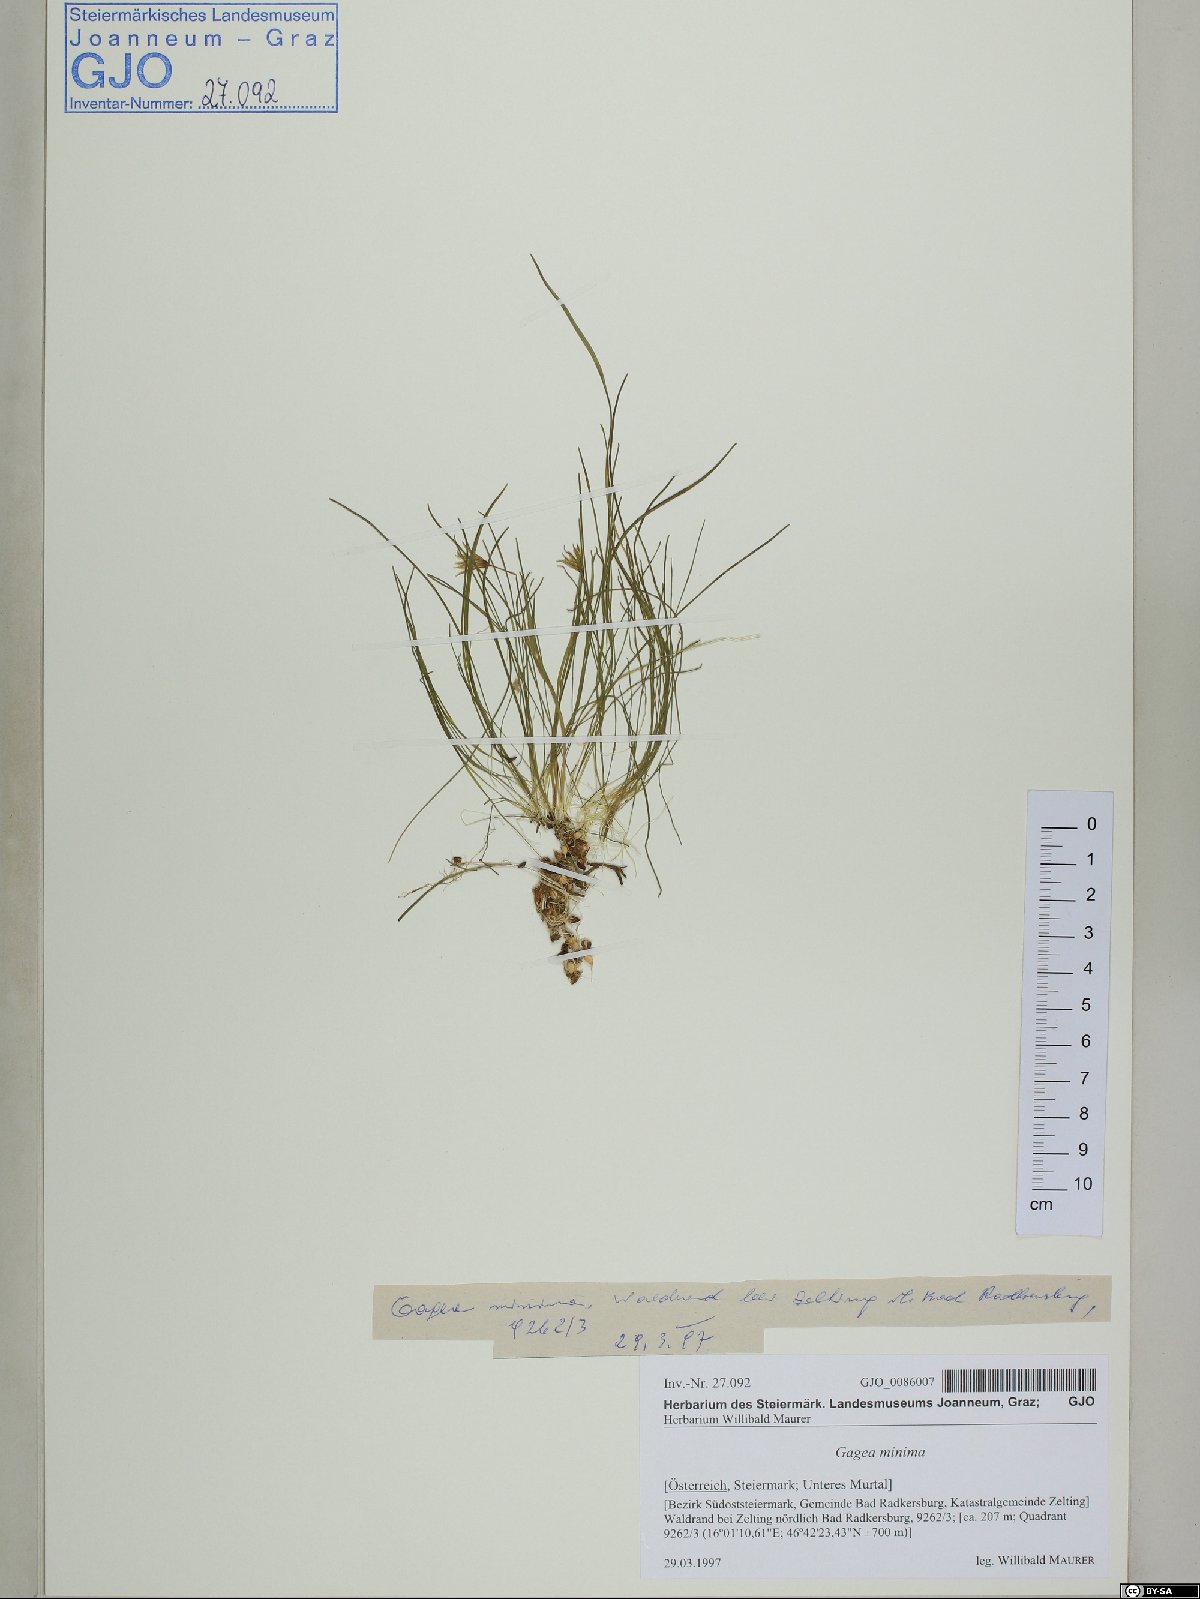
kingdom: Plantae
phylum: Tracheophyta
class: Liliopsida
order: Liliales
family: Liliaceae
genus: Gagea
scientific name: Gagea minima
